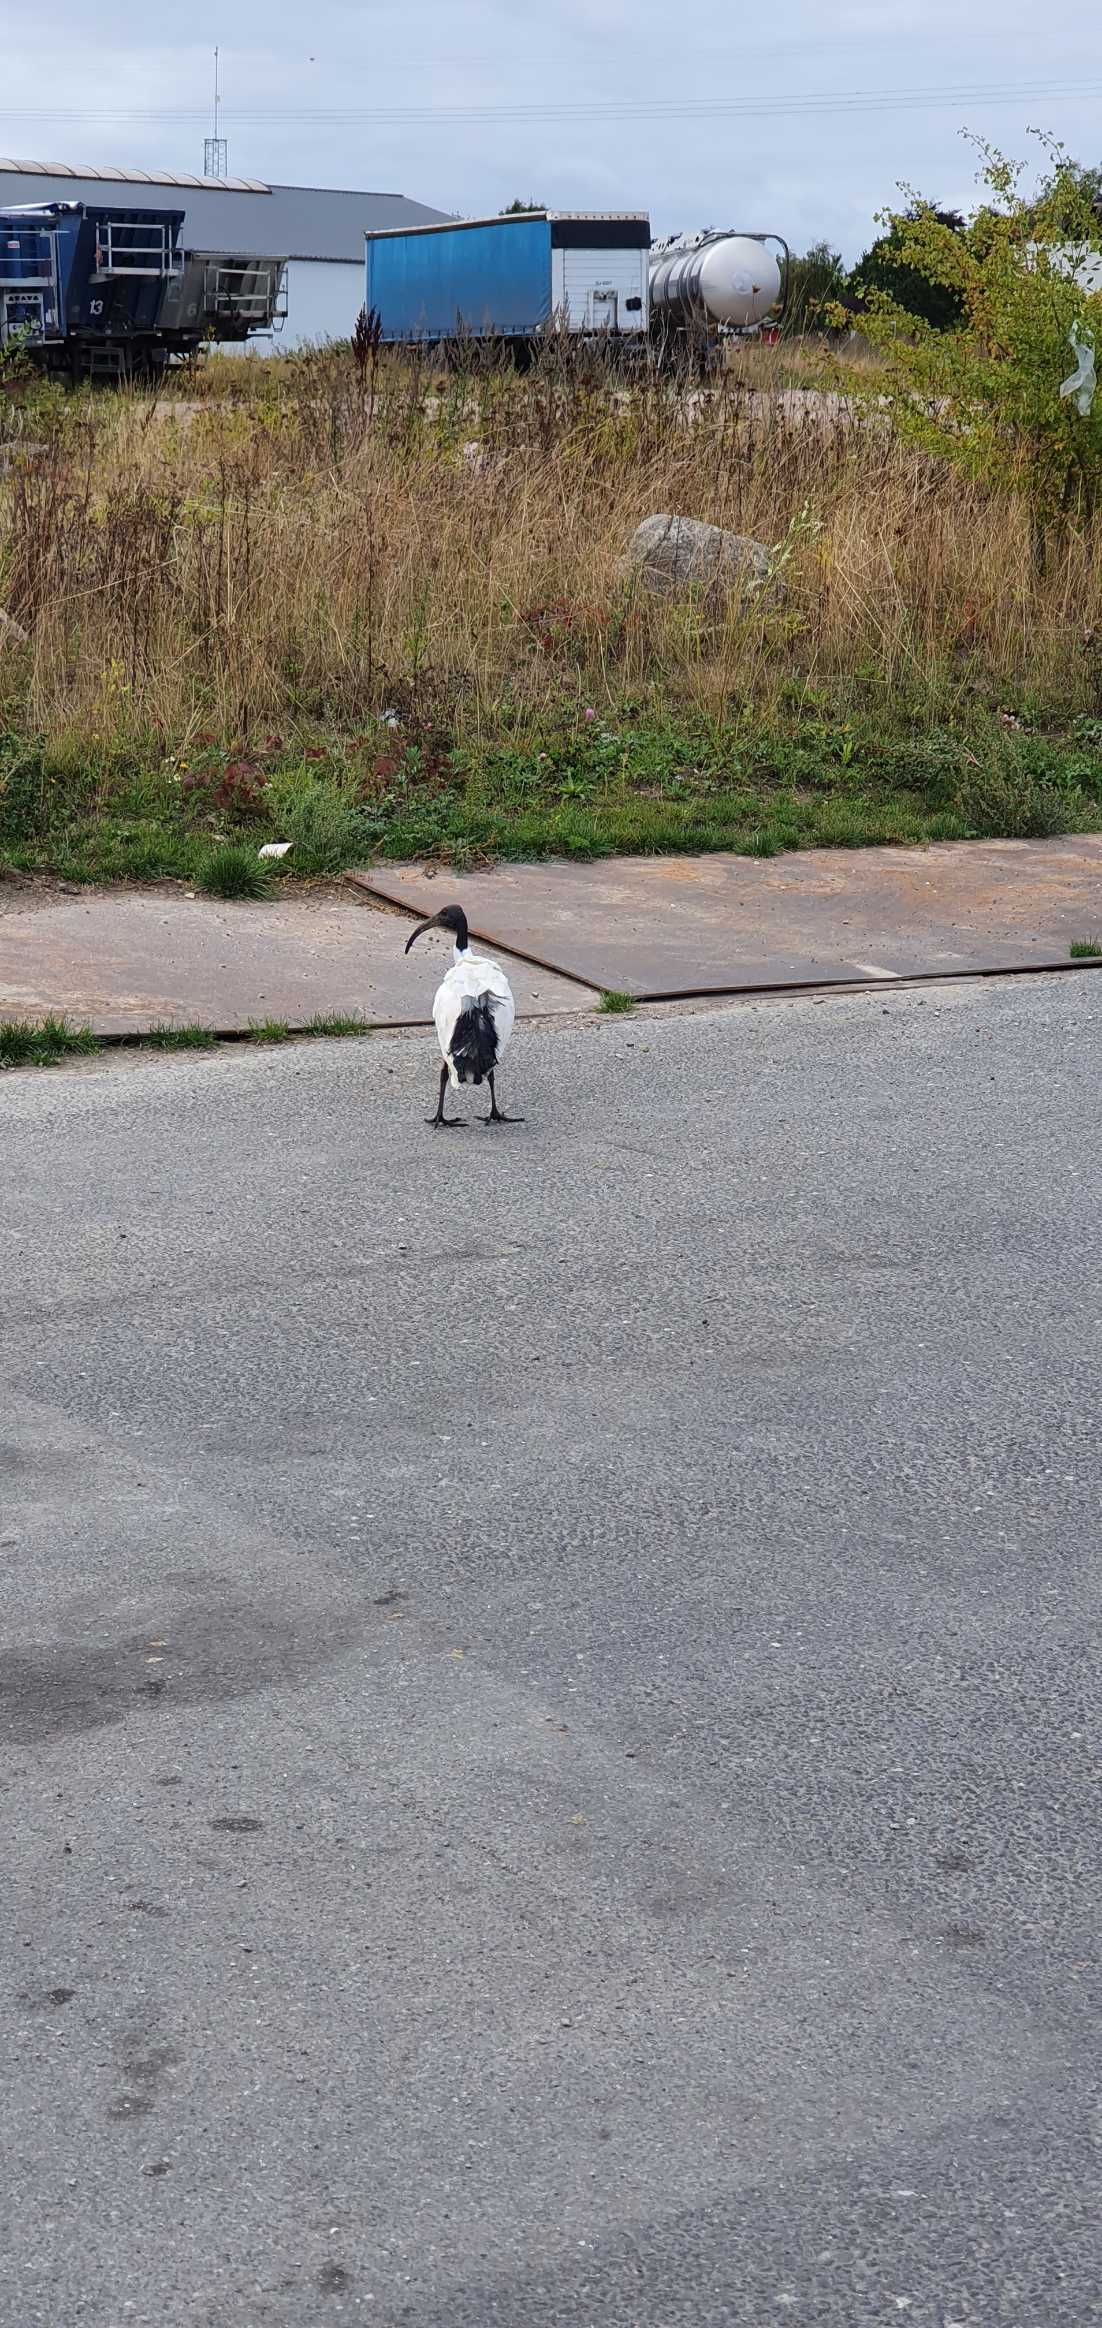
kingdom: Animalia
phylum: Chordata
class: Aves
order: Pelecaniformes
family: Threskiornithidae
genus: Threskiornis
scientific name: Threskiornis aethiopicus
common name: Hellig ibis
